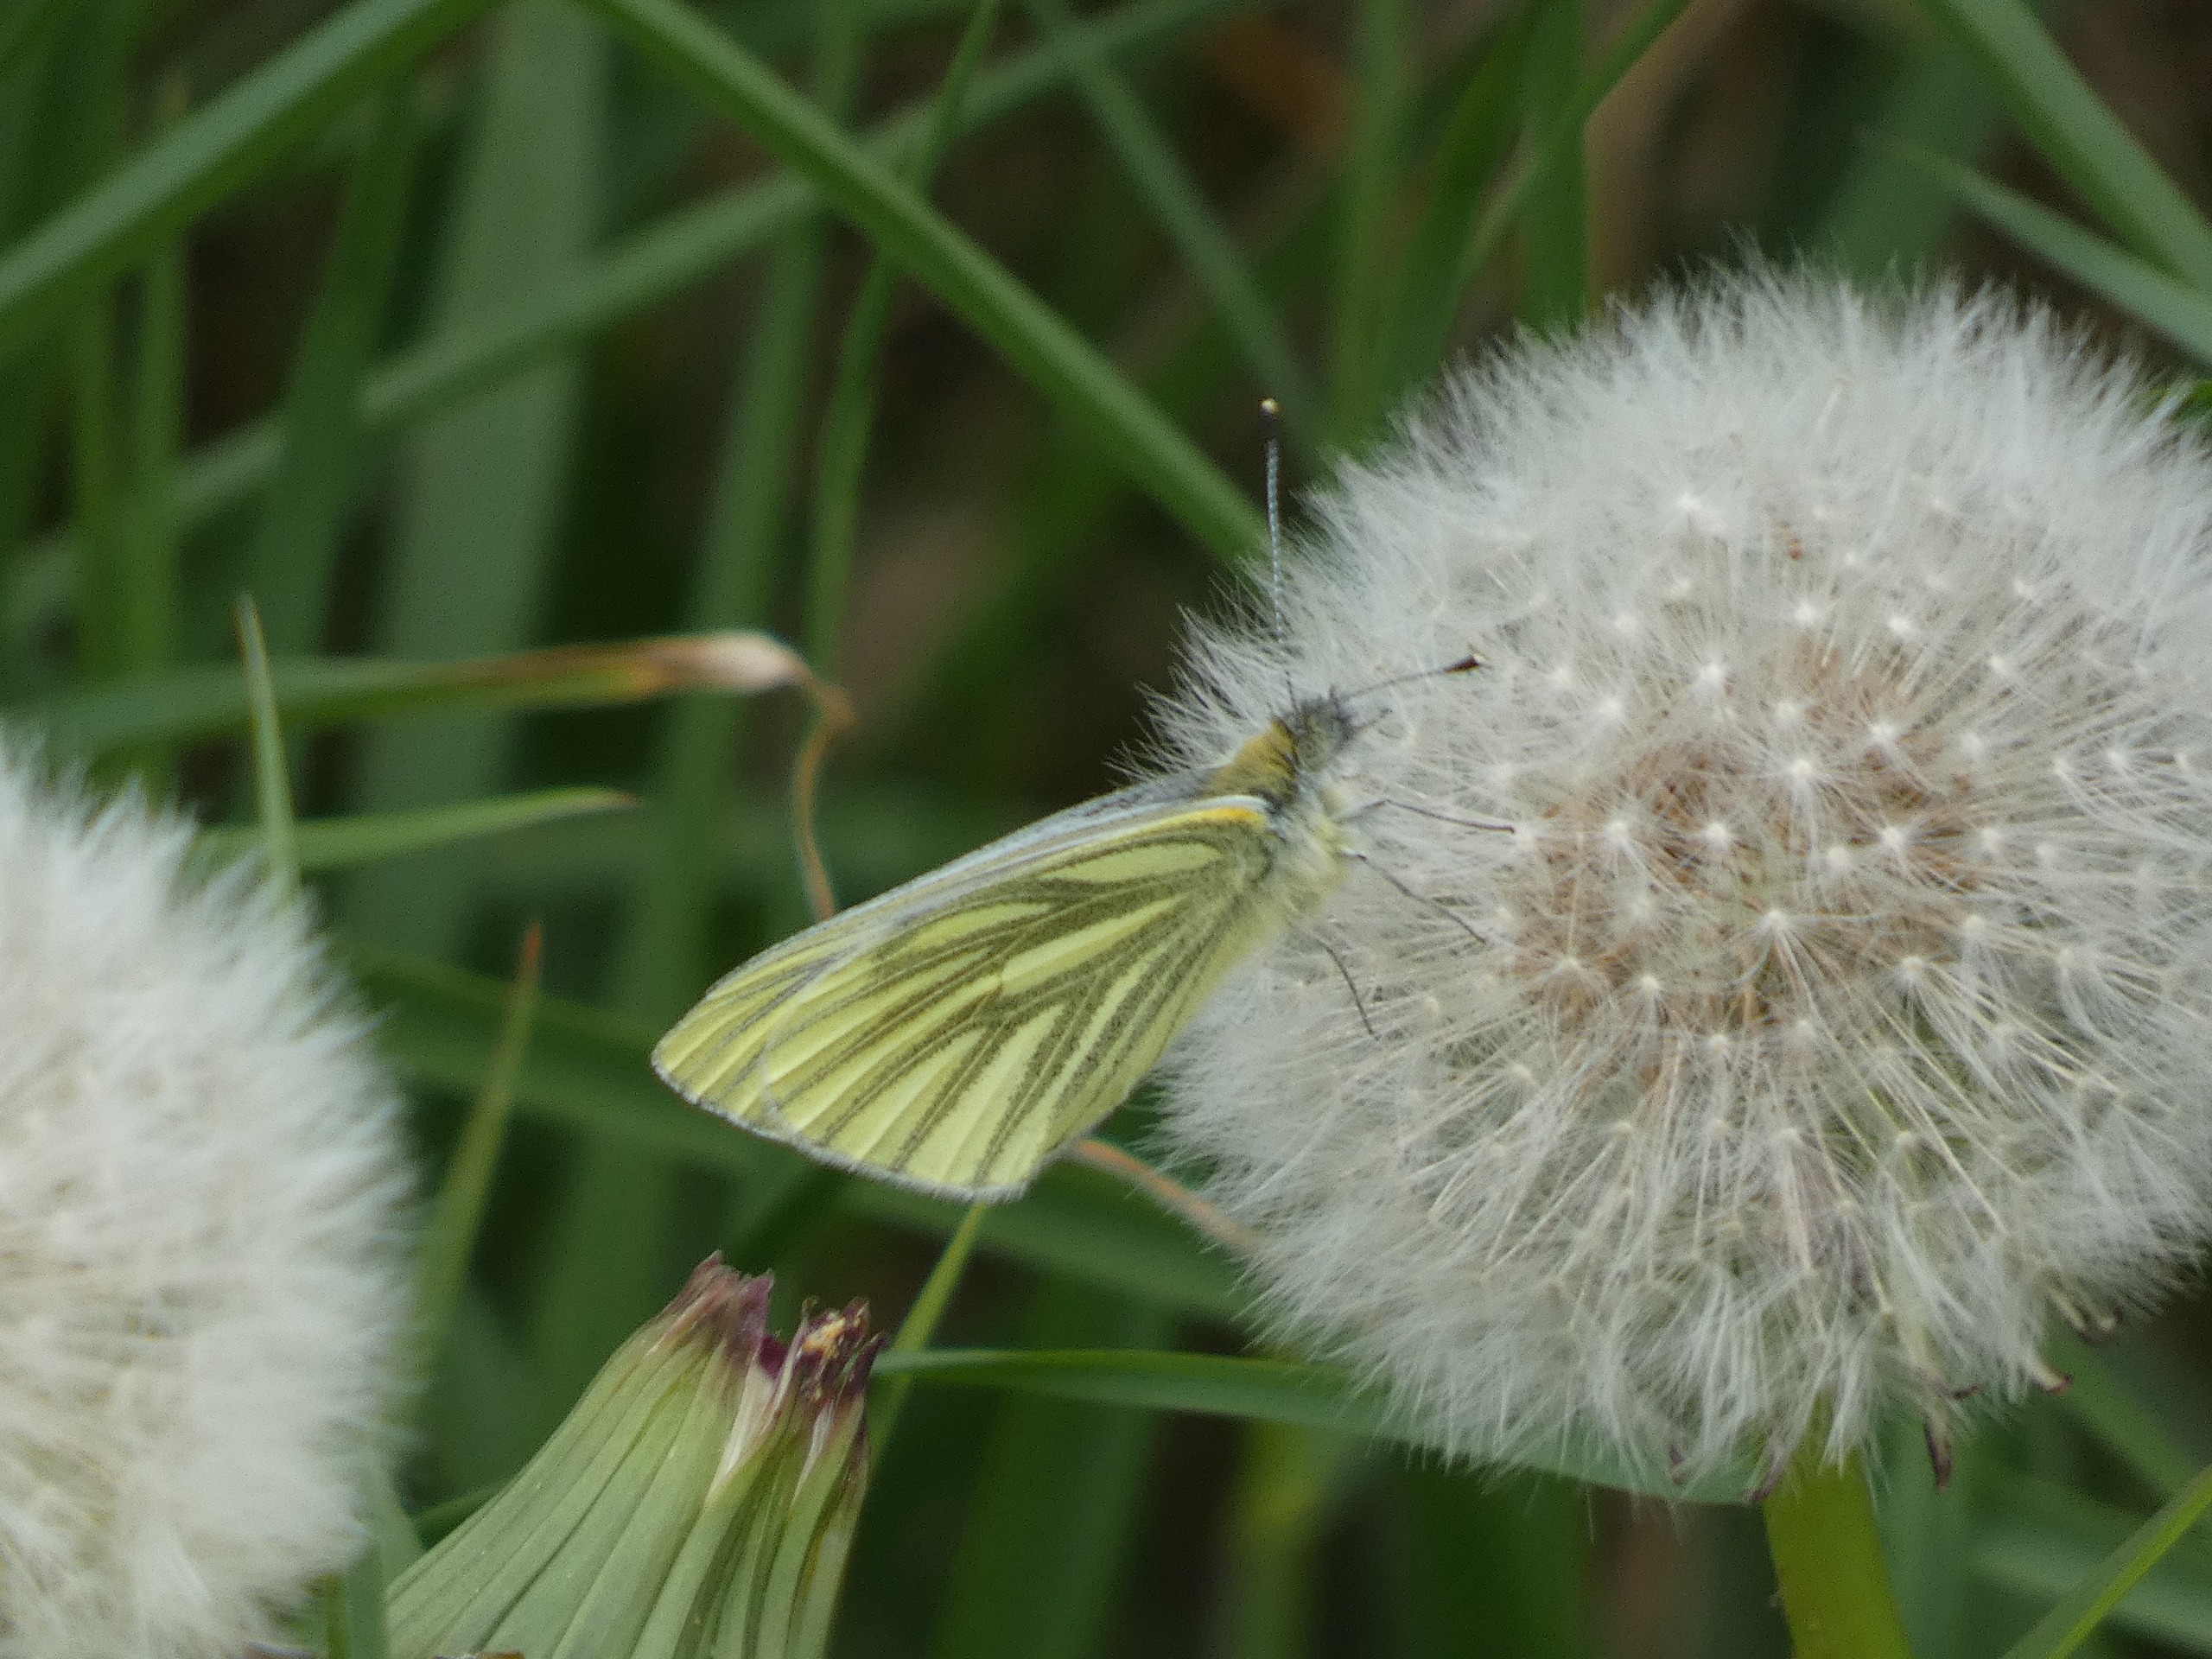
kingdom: Animalia
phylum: Arthropoda
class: Insecta
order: Lepidoptera
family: Pieridae
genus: Pieris
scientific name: Pieris napi
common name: Grønåret kålsommerfugl
